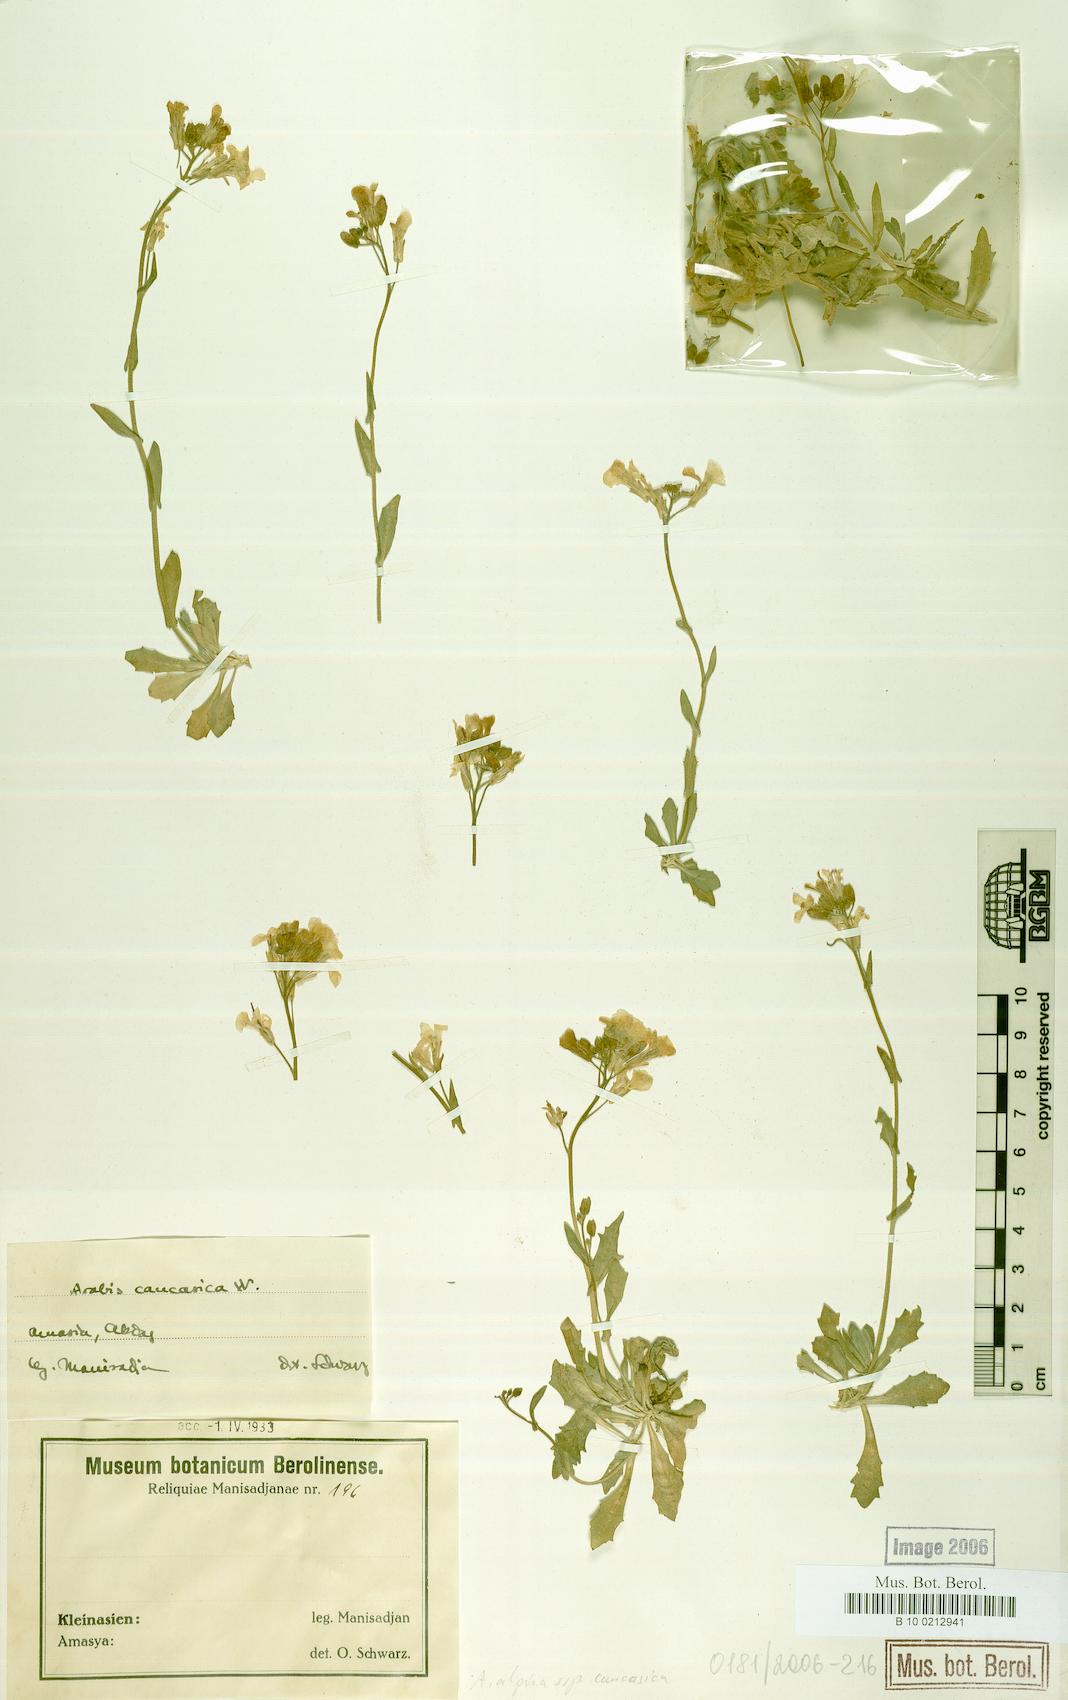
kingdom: Plantae
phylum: Tracheophyta
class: Magnoliopsida
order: Brassicales
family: Brassicaceae
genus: Arabis
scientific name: Arabis caucasica
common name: Gray rockcress
